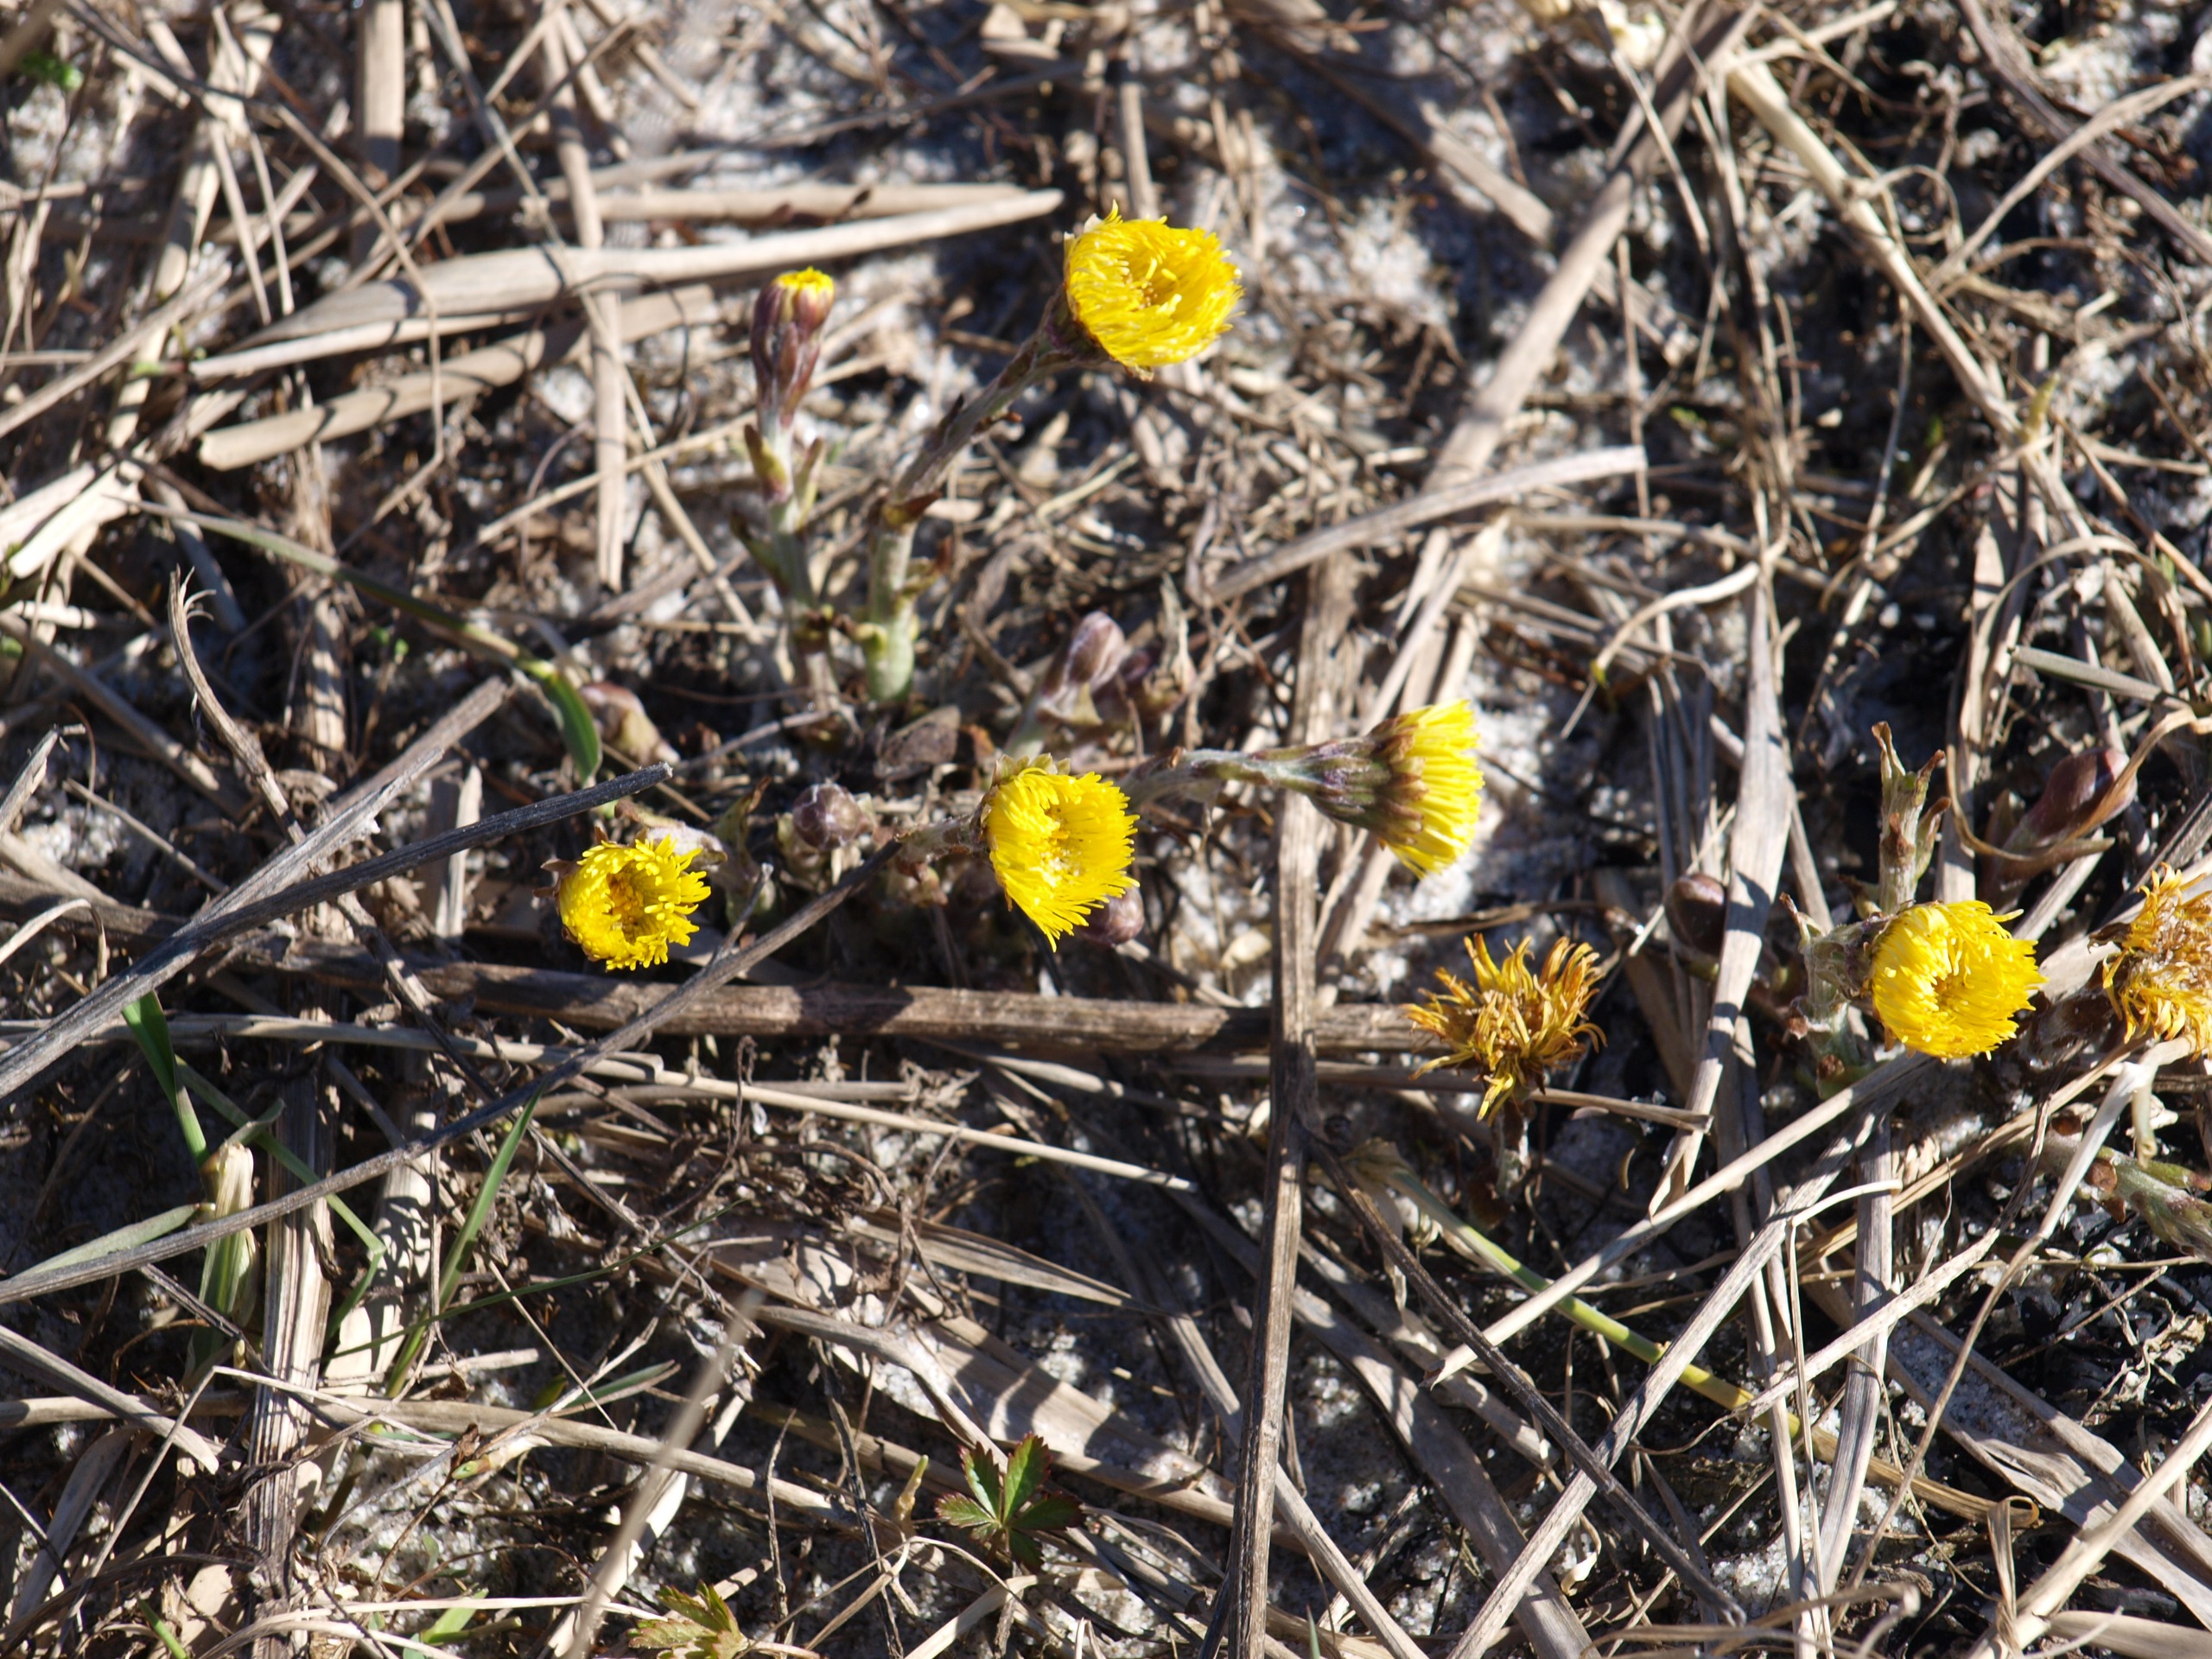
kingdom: Plantae
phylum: Tracheophyta
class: Magnoliopsida
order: Asterales
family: Asteraceae
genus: Tussilago
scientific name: Tussilago farfara
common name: Følfod
